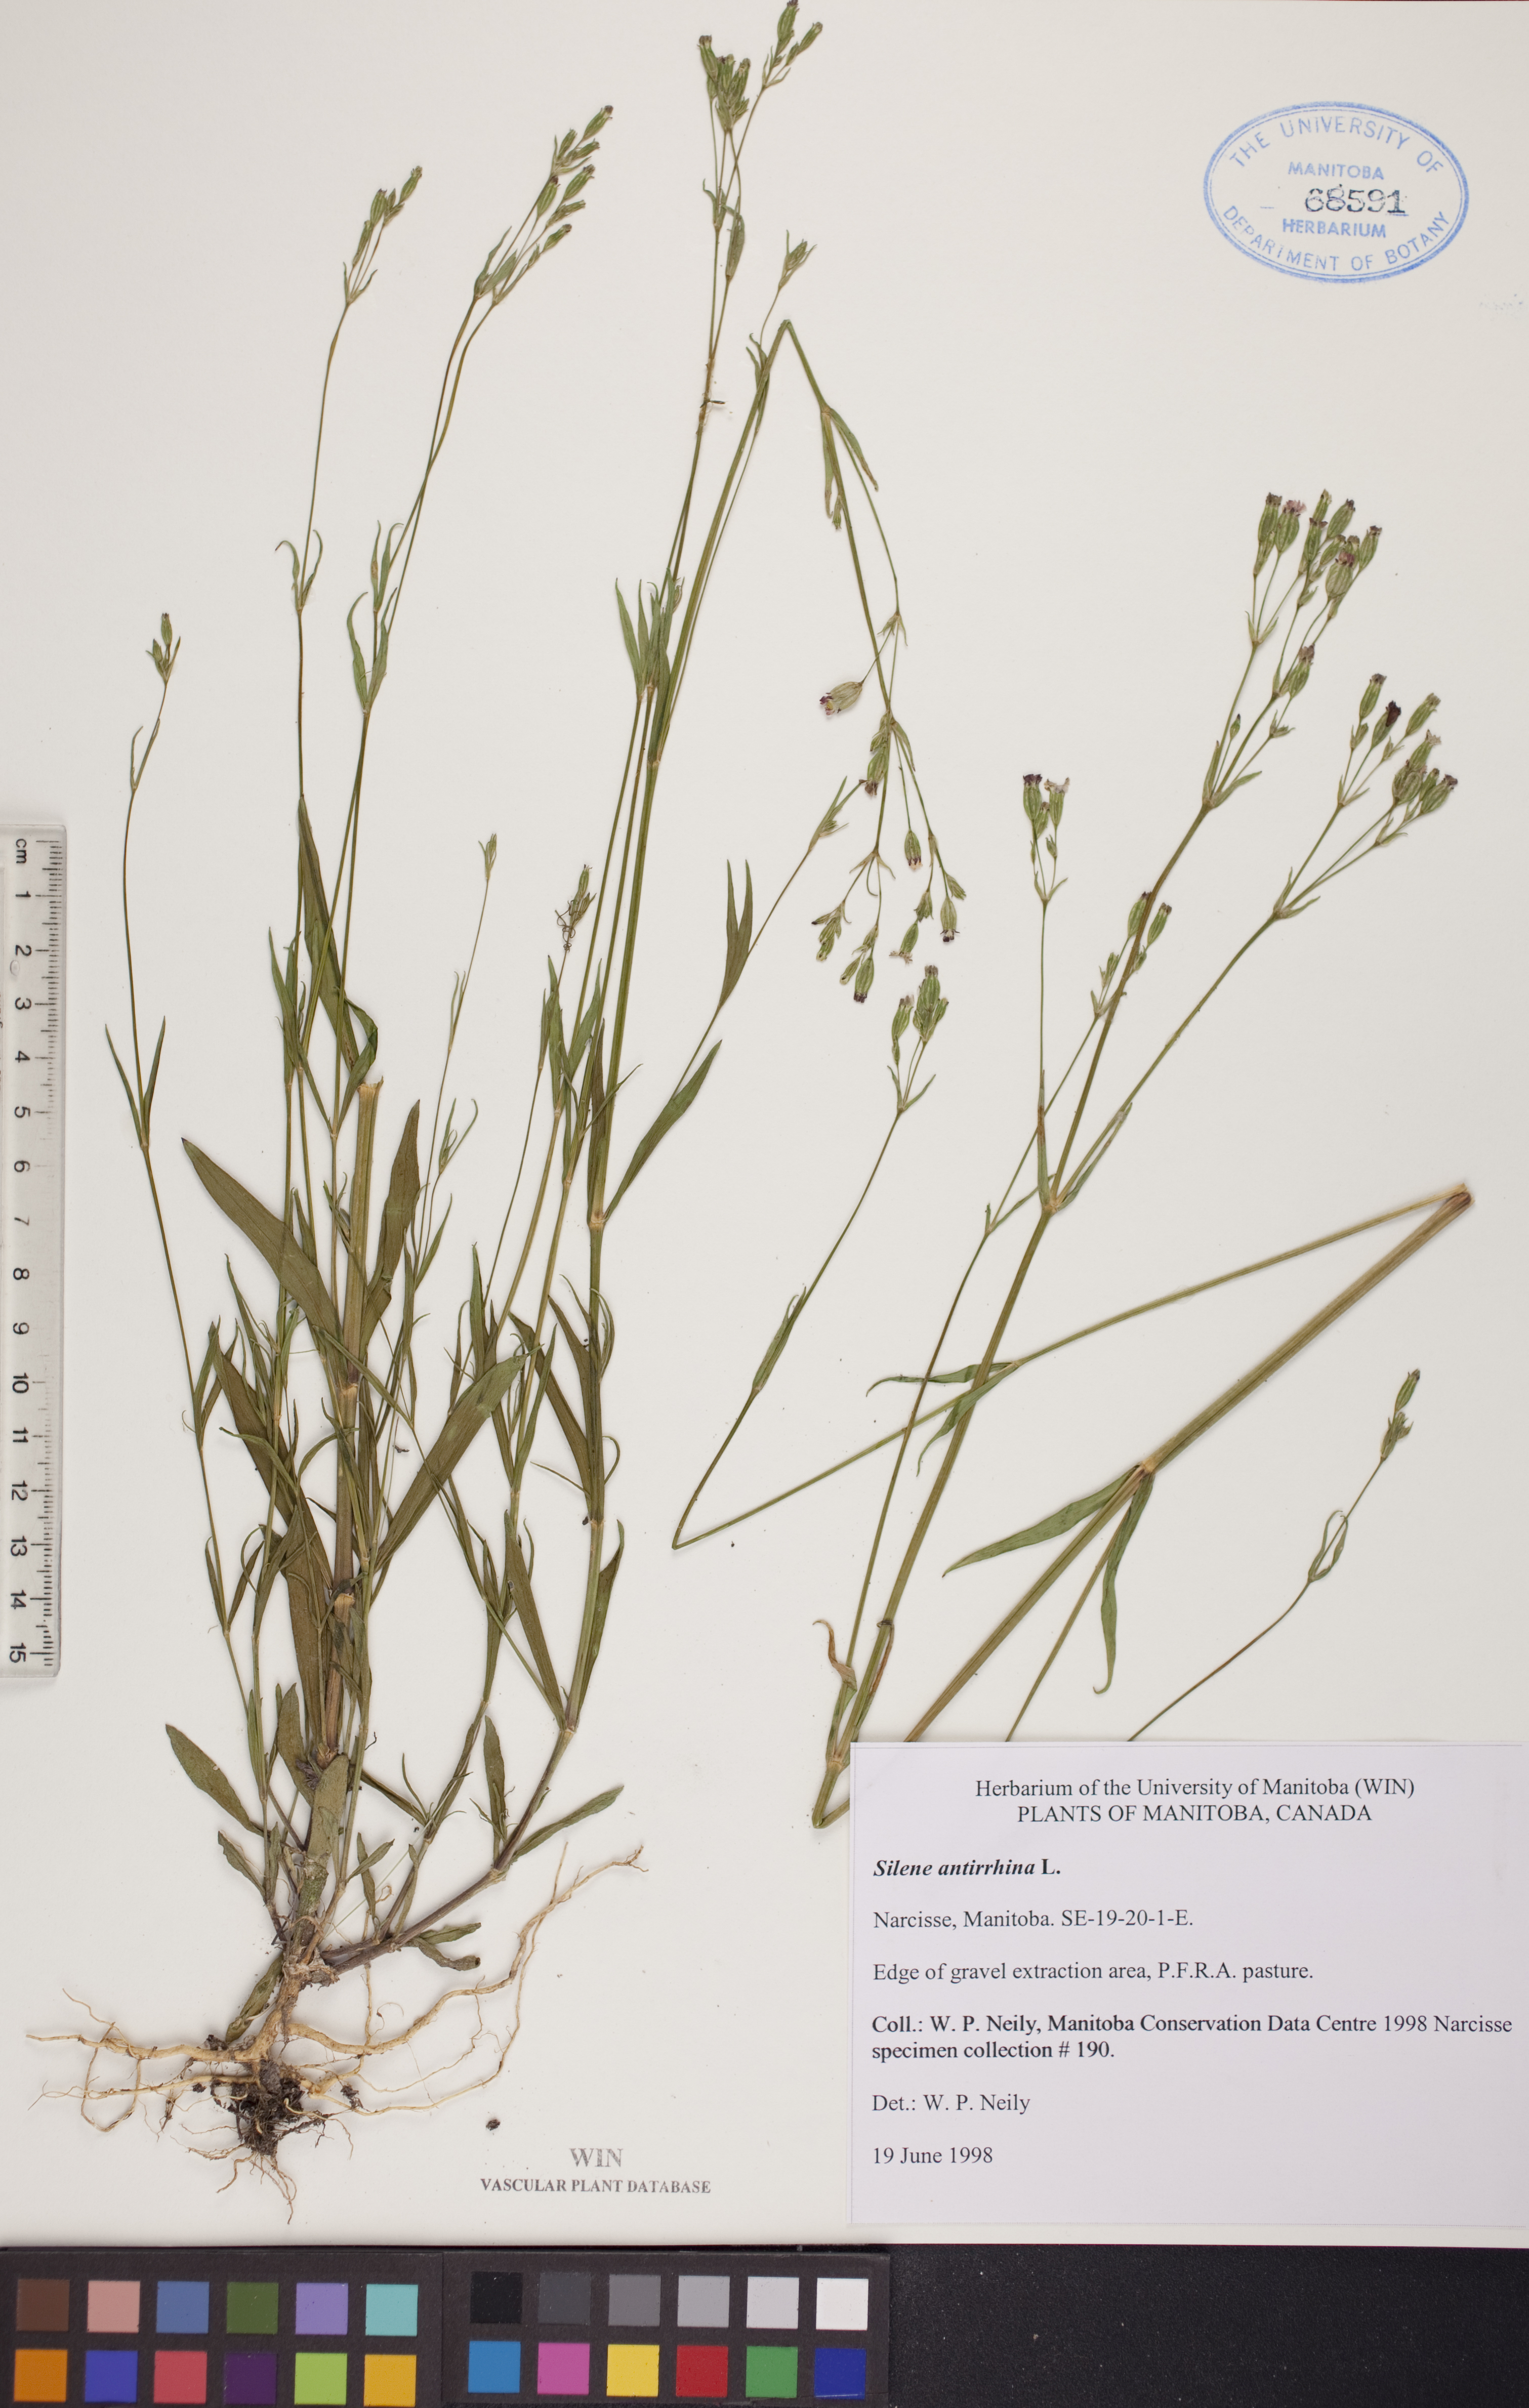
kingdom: Plantae
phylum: Tracheophyta
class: Magnoliopsida
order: Caryophyllales
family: Caryophyllaceae
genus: Silene
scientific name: Silene antirrhina
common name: Sleepy catchfly
